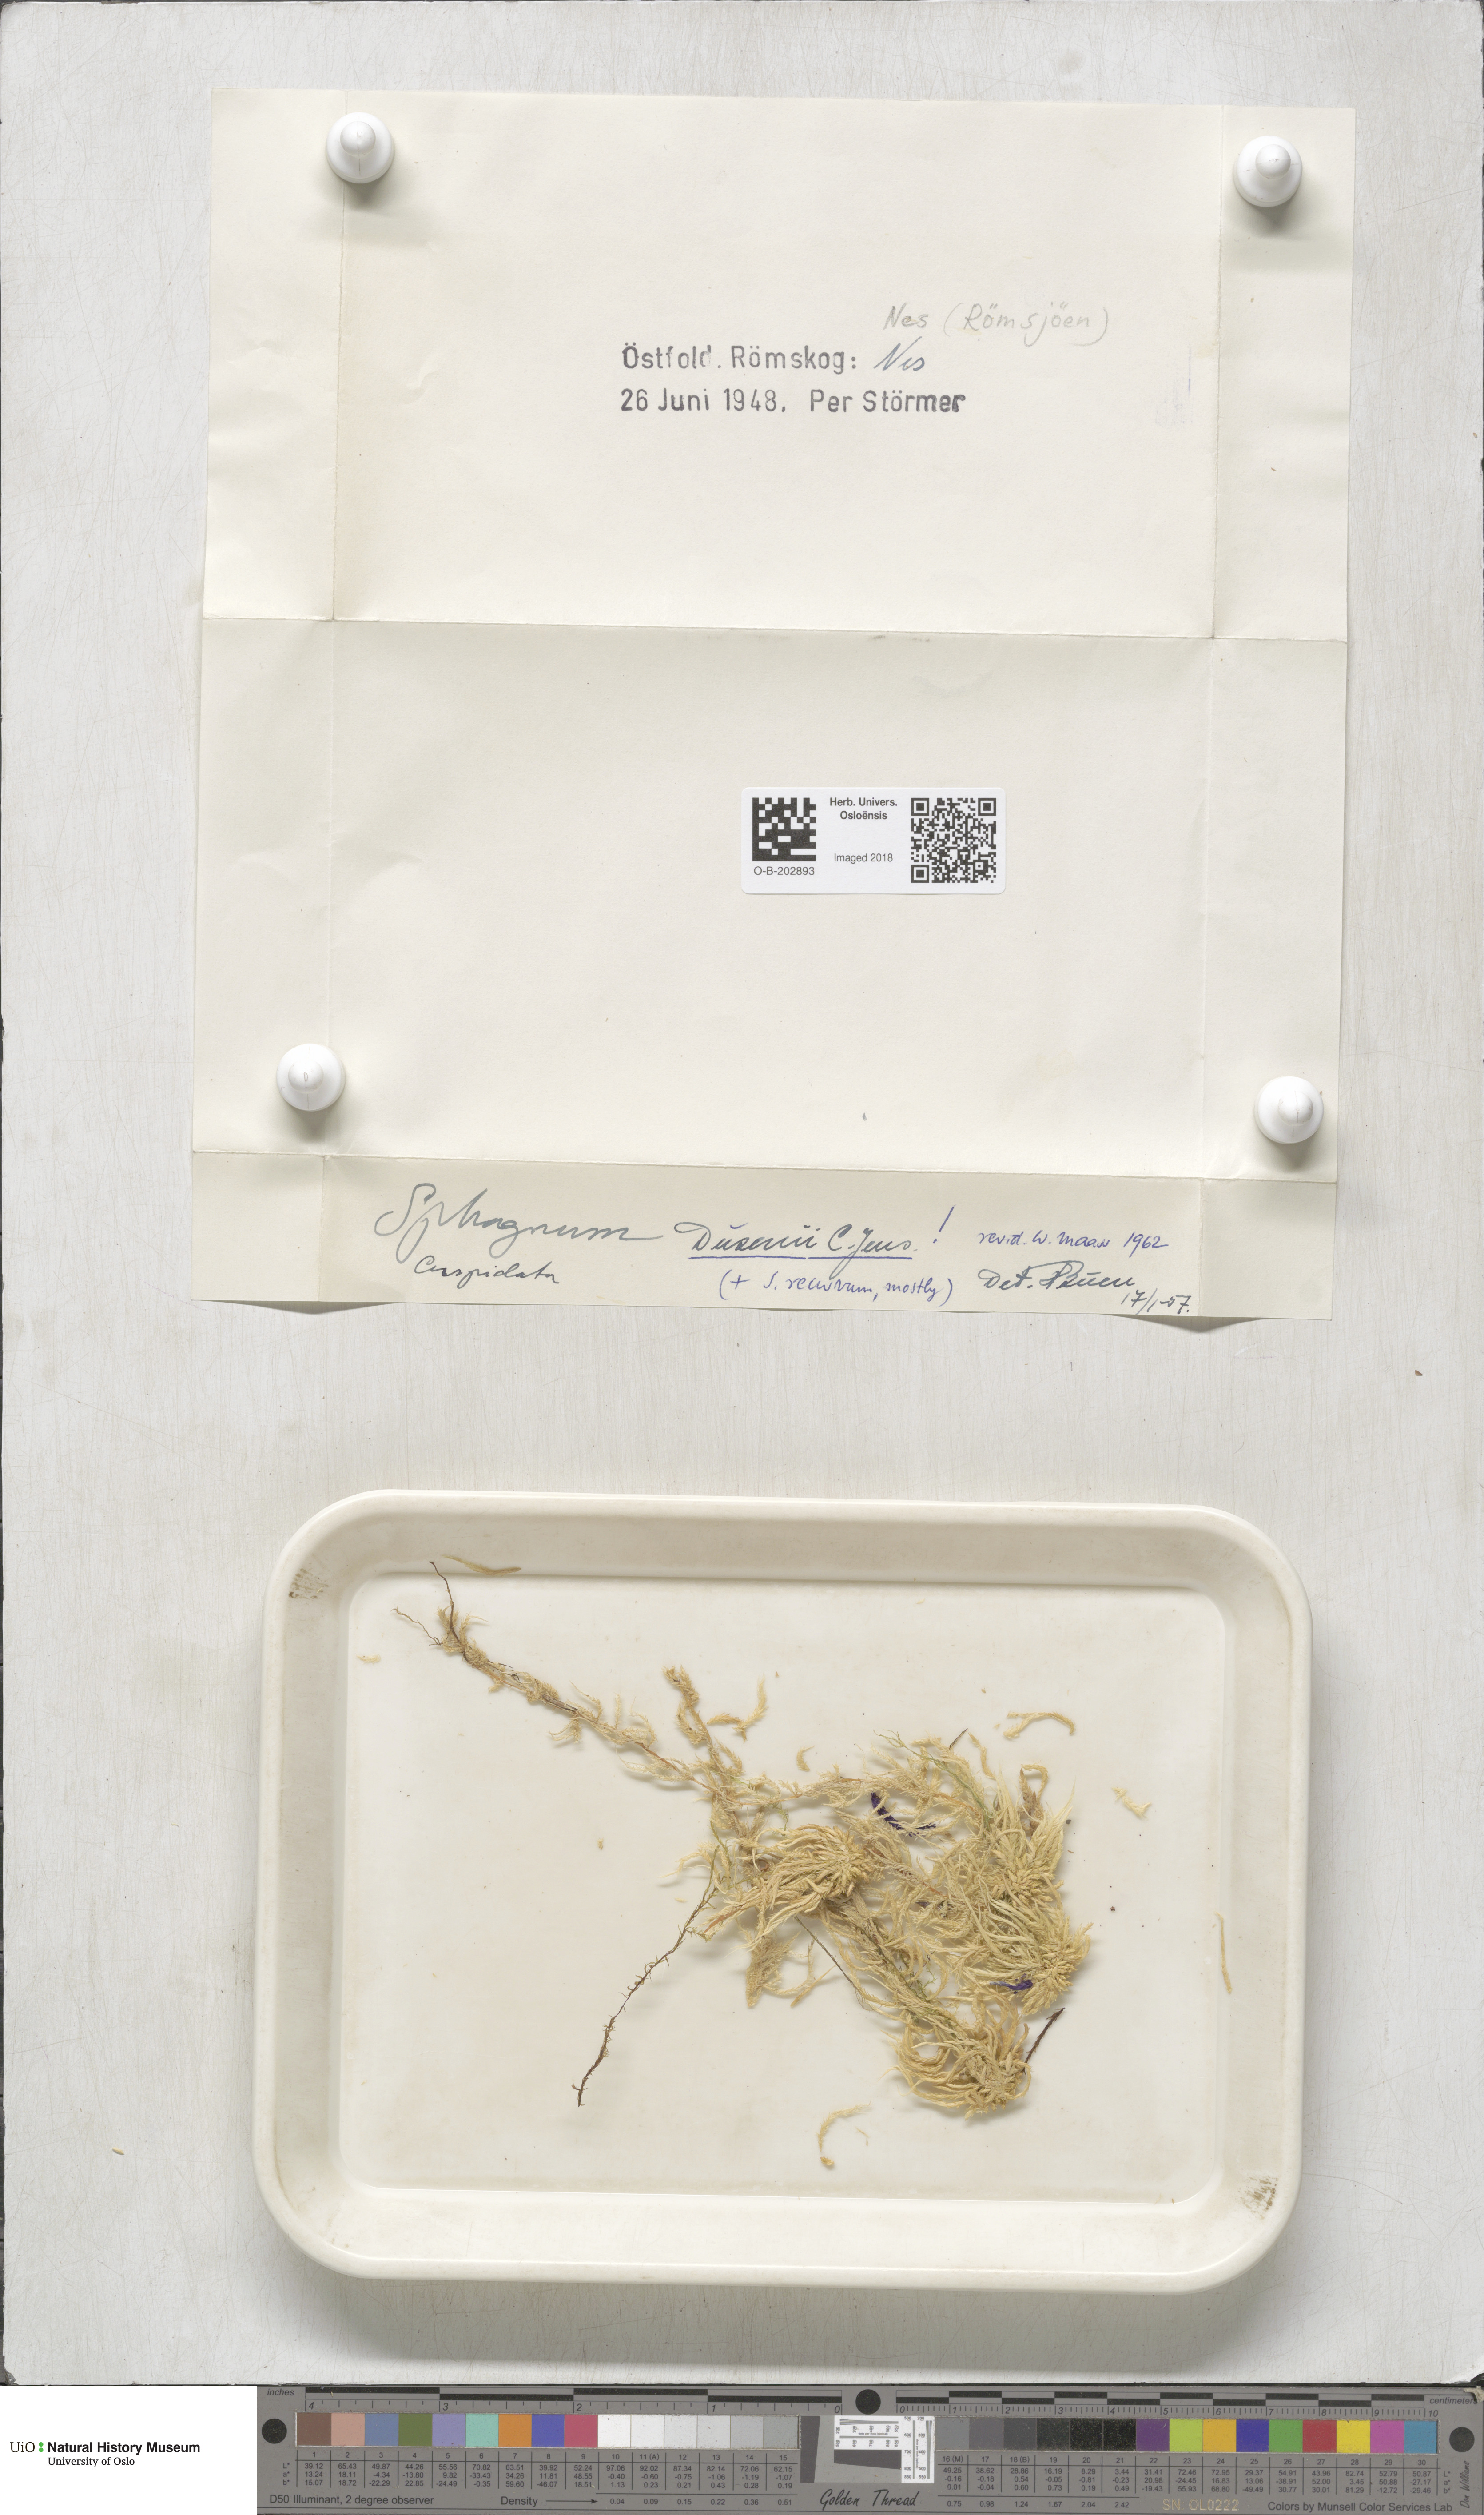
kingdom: Plantae
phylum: Bryophyta
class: Sphagnopsida
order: Sphagnales
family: Sphagnaceae
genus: Sphagnum
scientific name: Sphagnum majus
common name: Olive bog-moss
